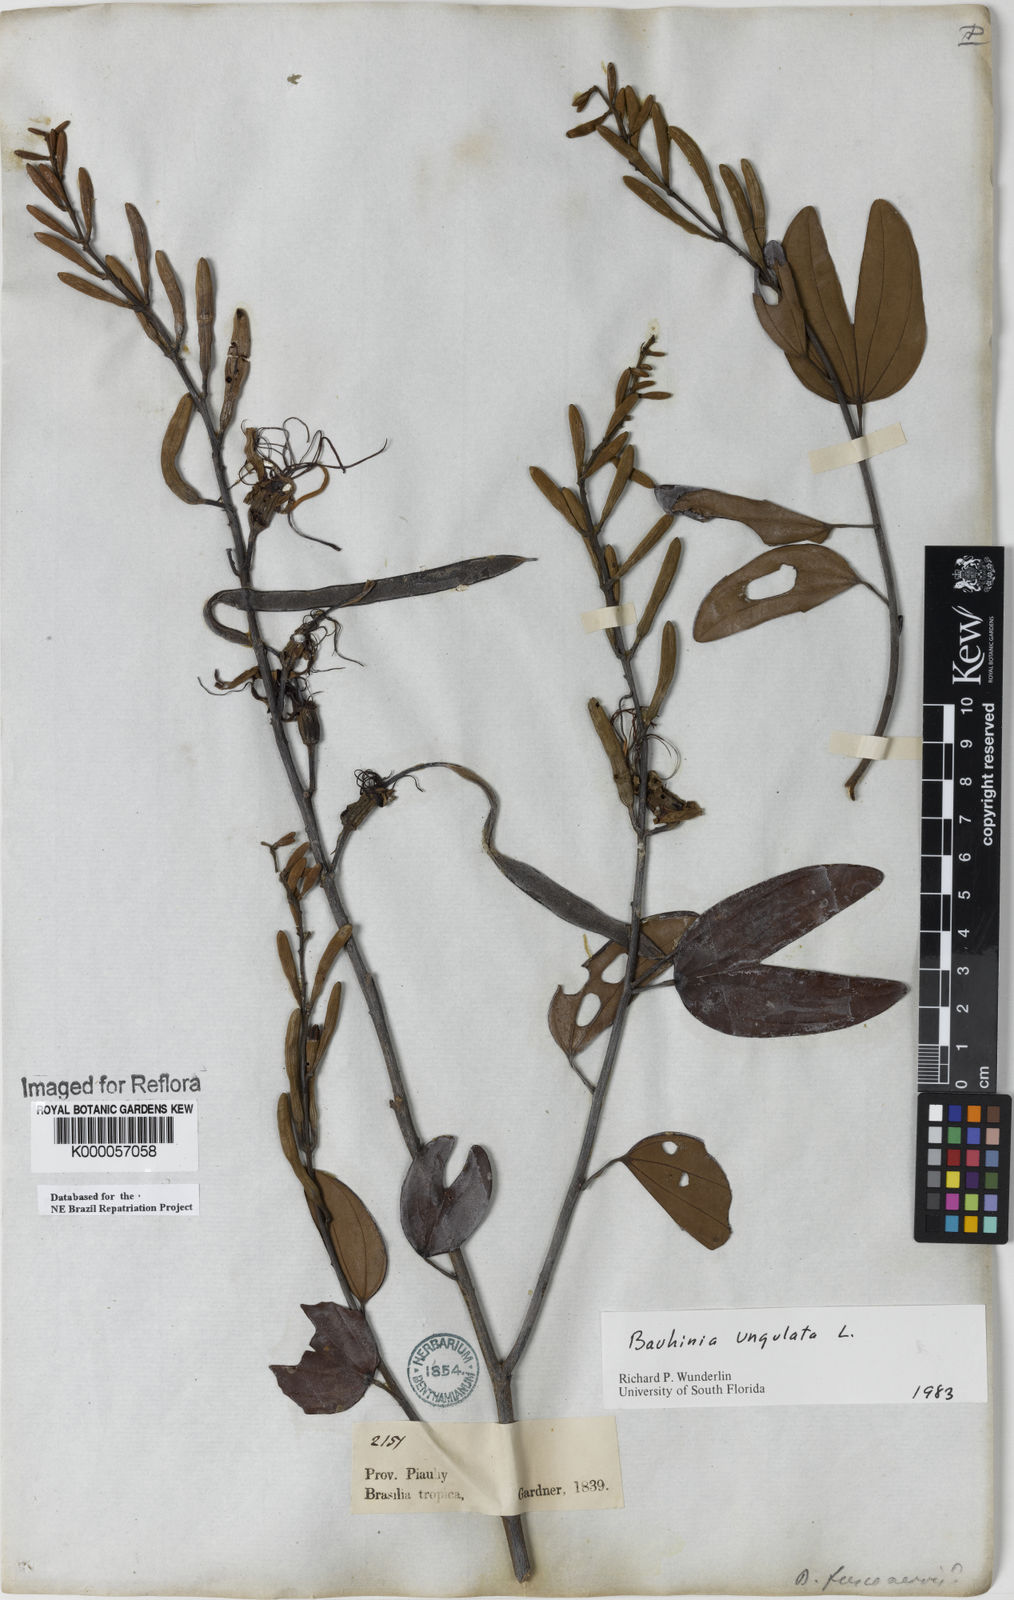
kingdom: Plantae
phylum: Tracheophyta
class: Magnoliopsida
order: Fabales
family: Fabaceae
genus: Bauhinia
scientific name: Bauhinia ungulata
